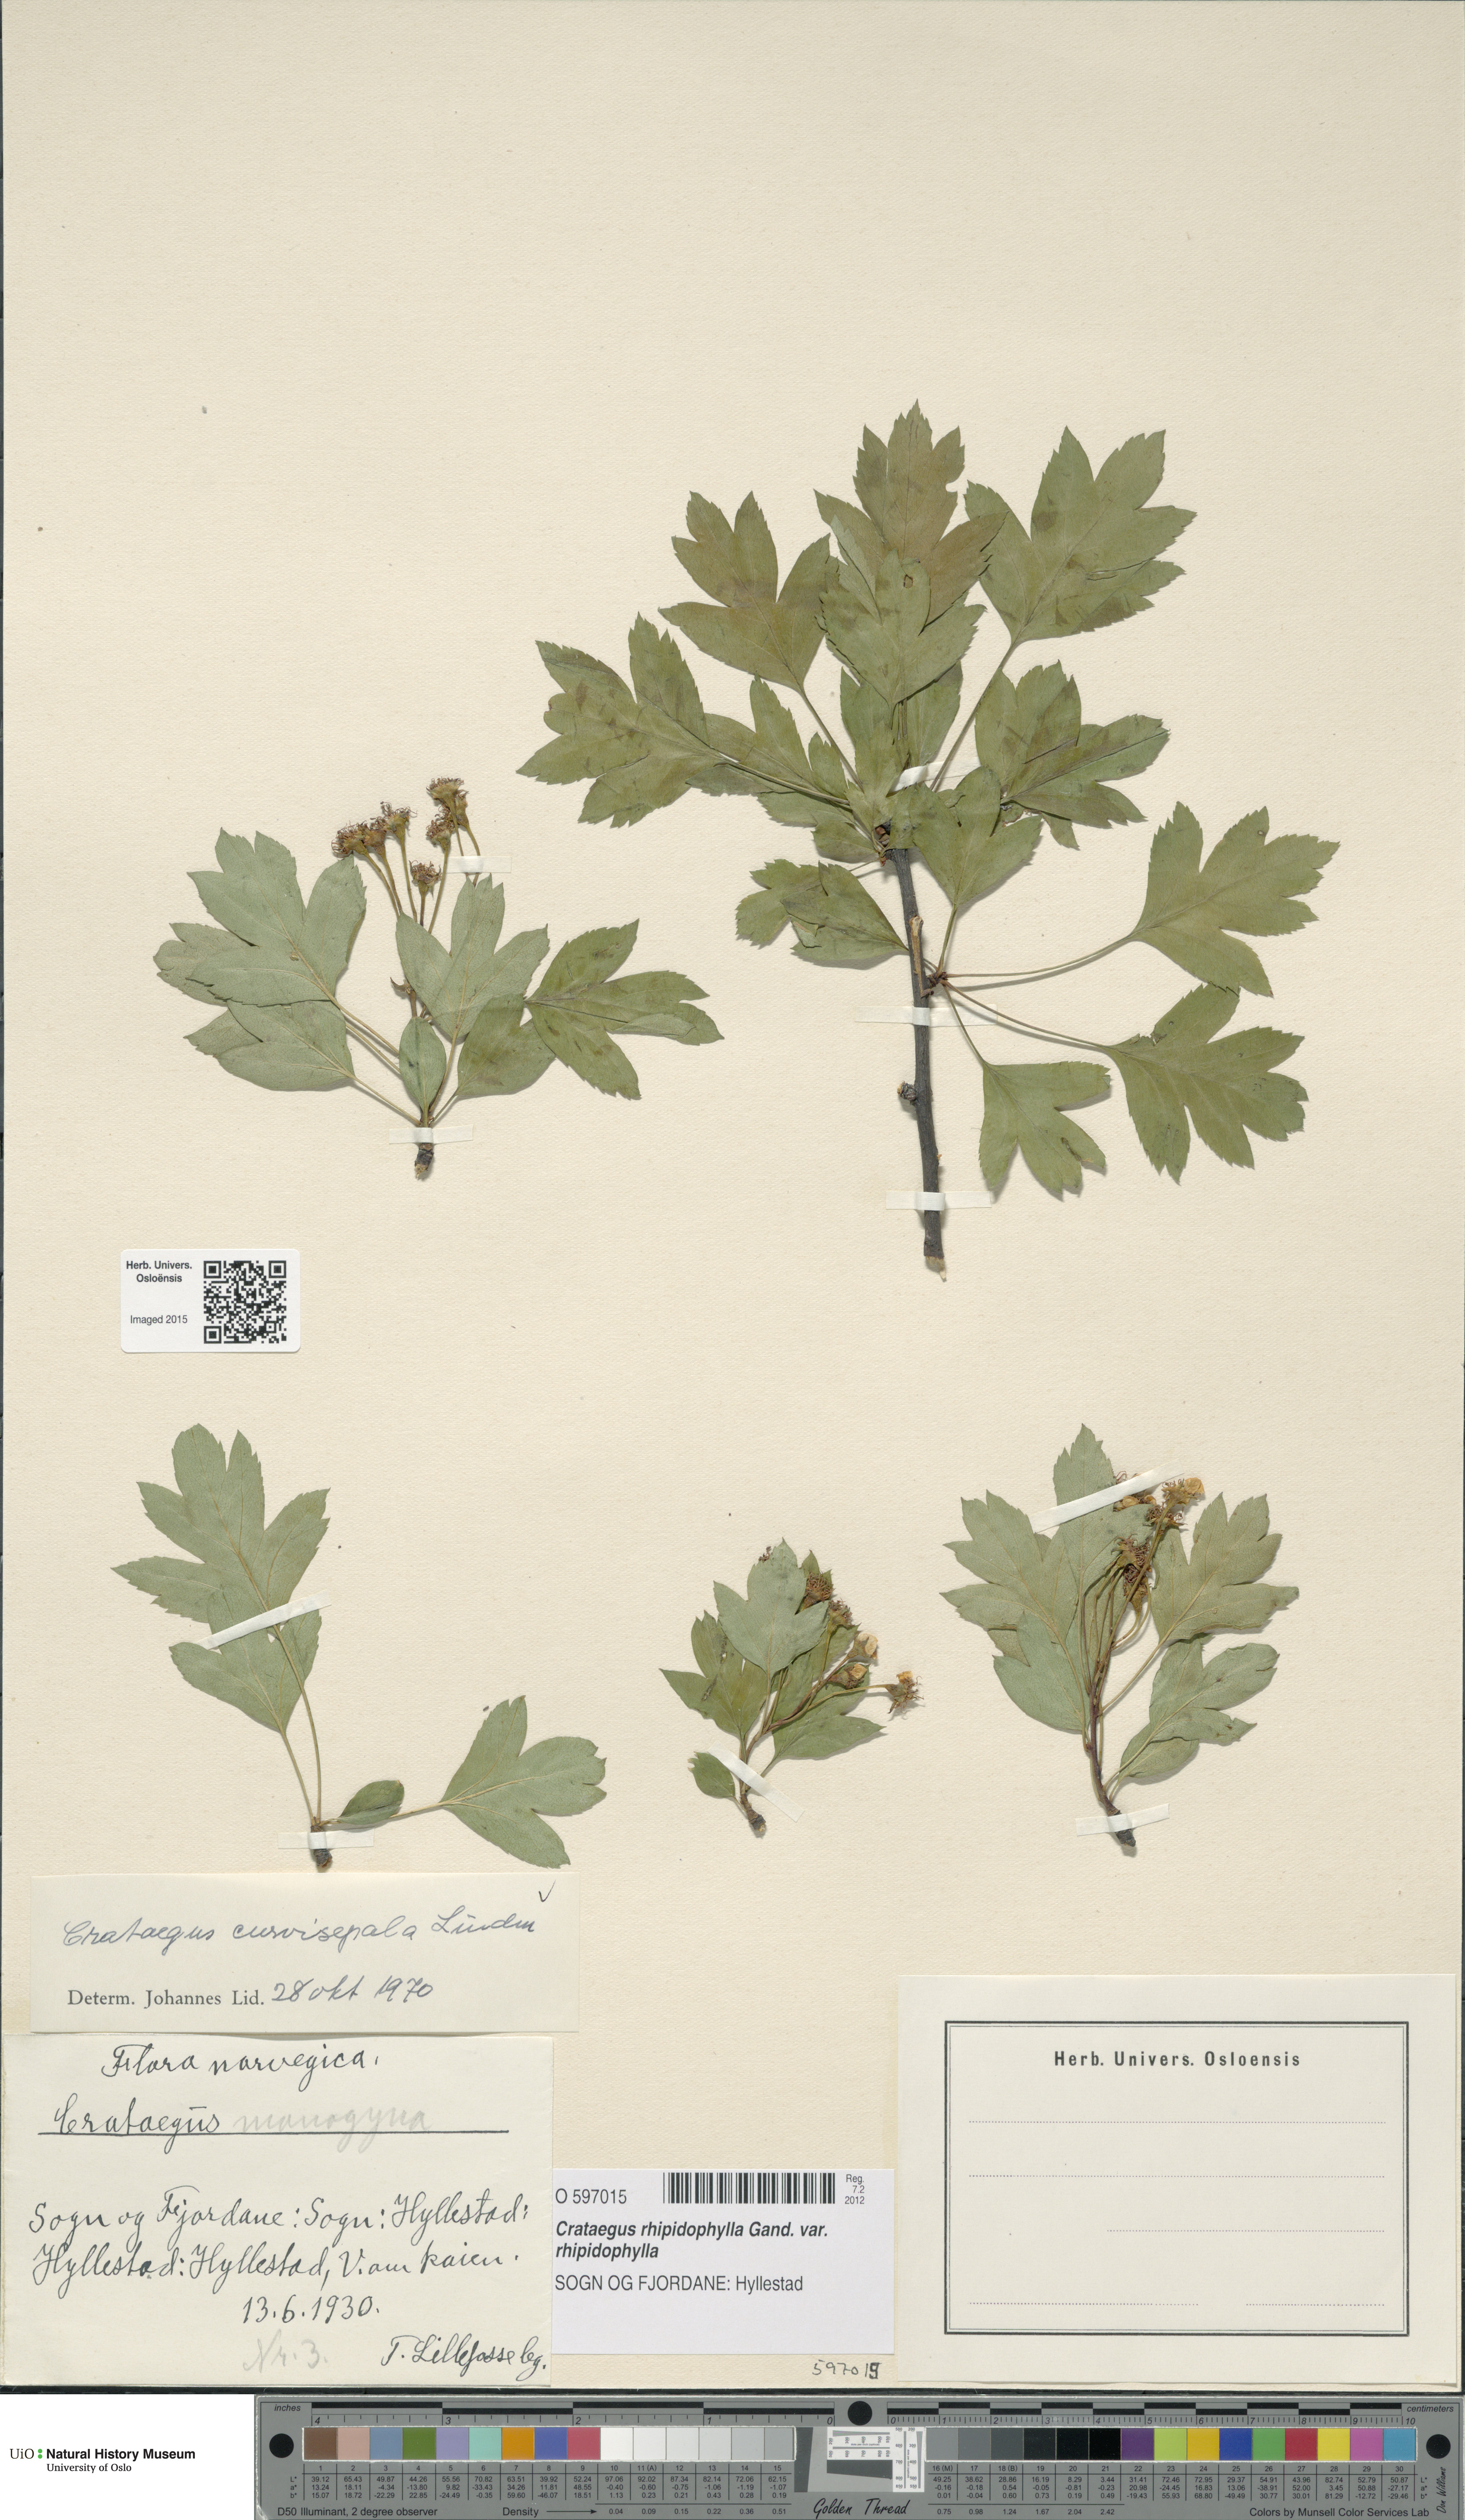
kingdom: Plantae
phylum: Tracheophyta
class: Magnoliopsida
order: Rosales
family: Rosaceae
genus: Crataegus
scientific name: Crataegus rhipidophylla
